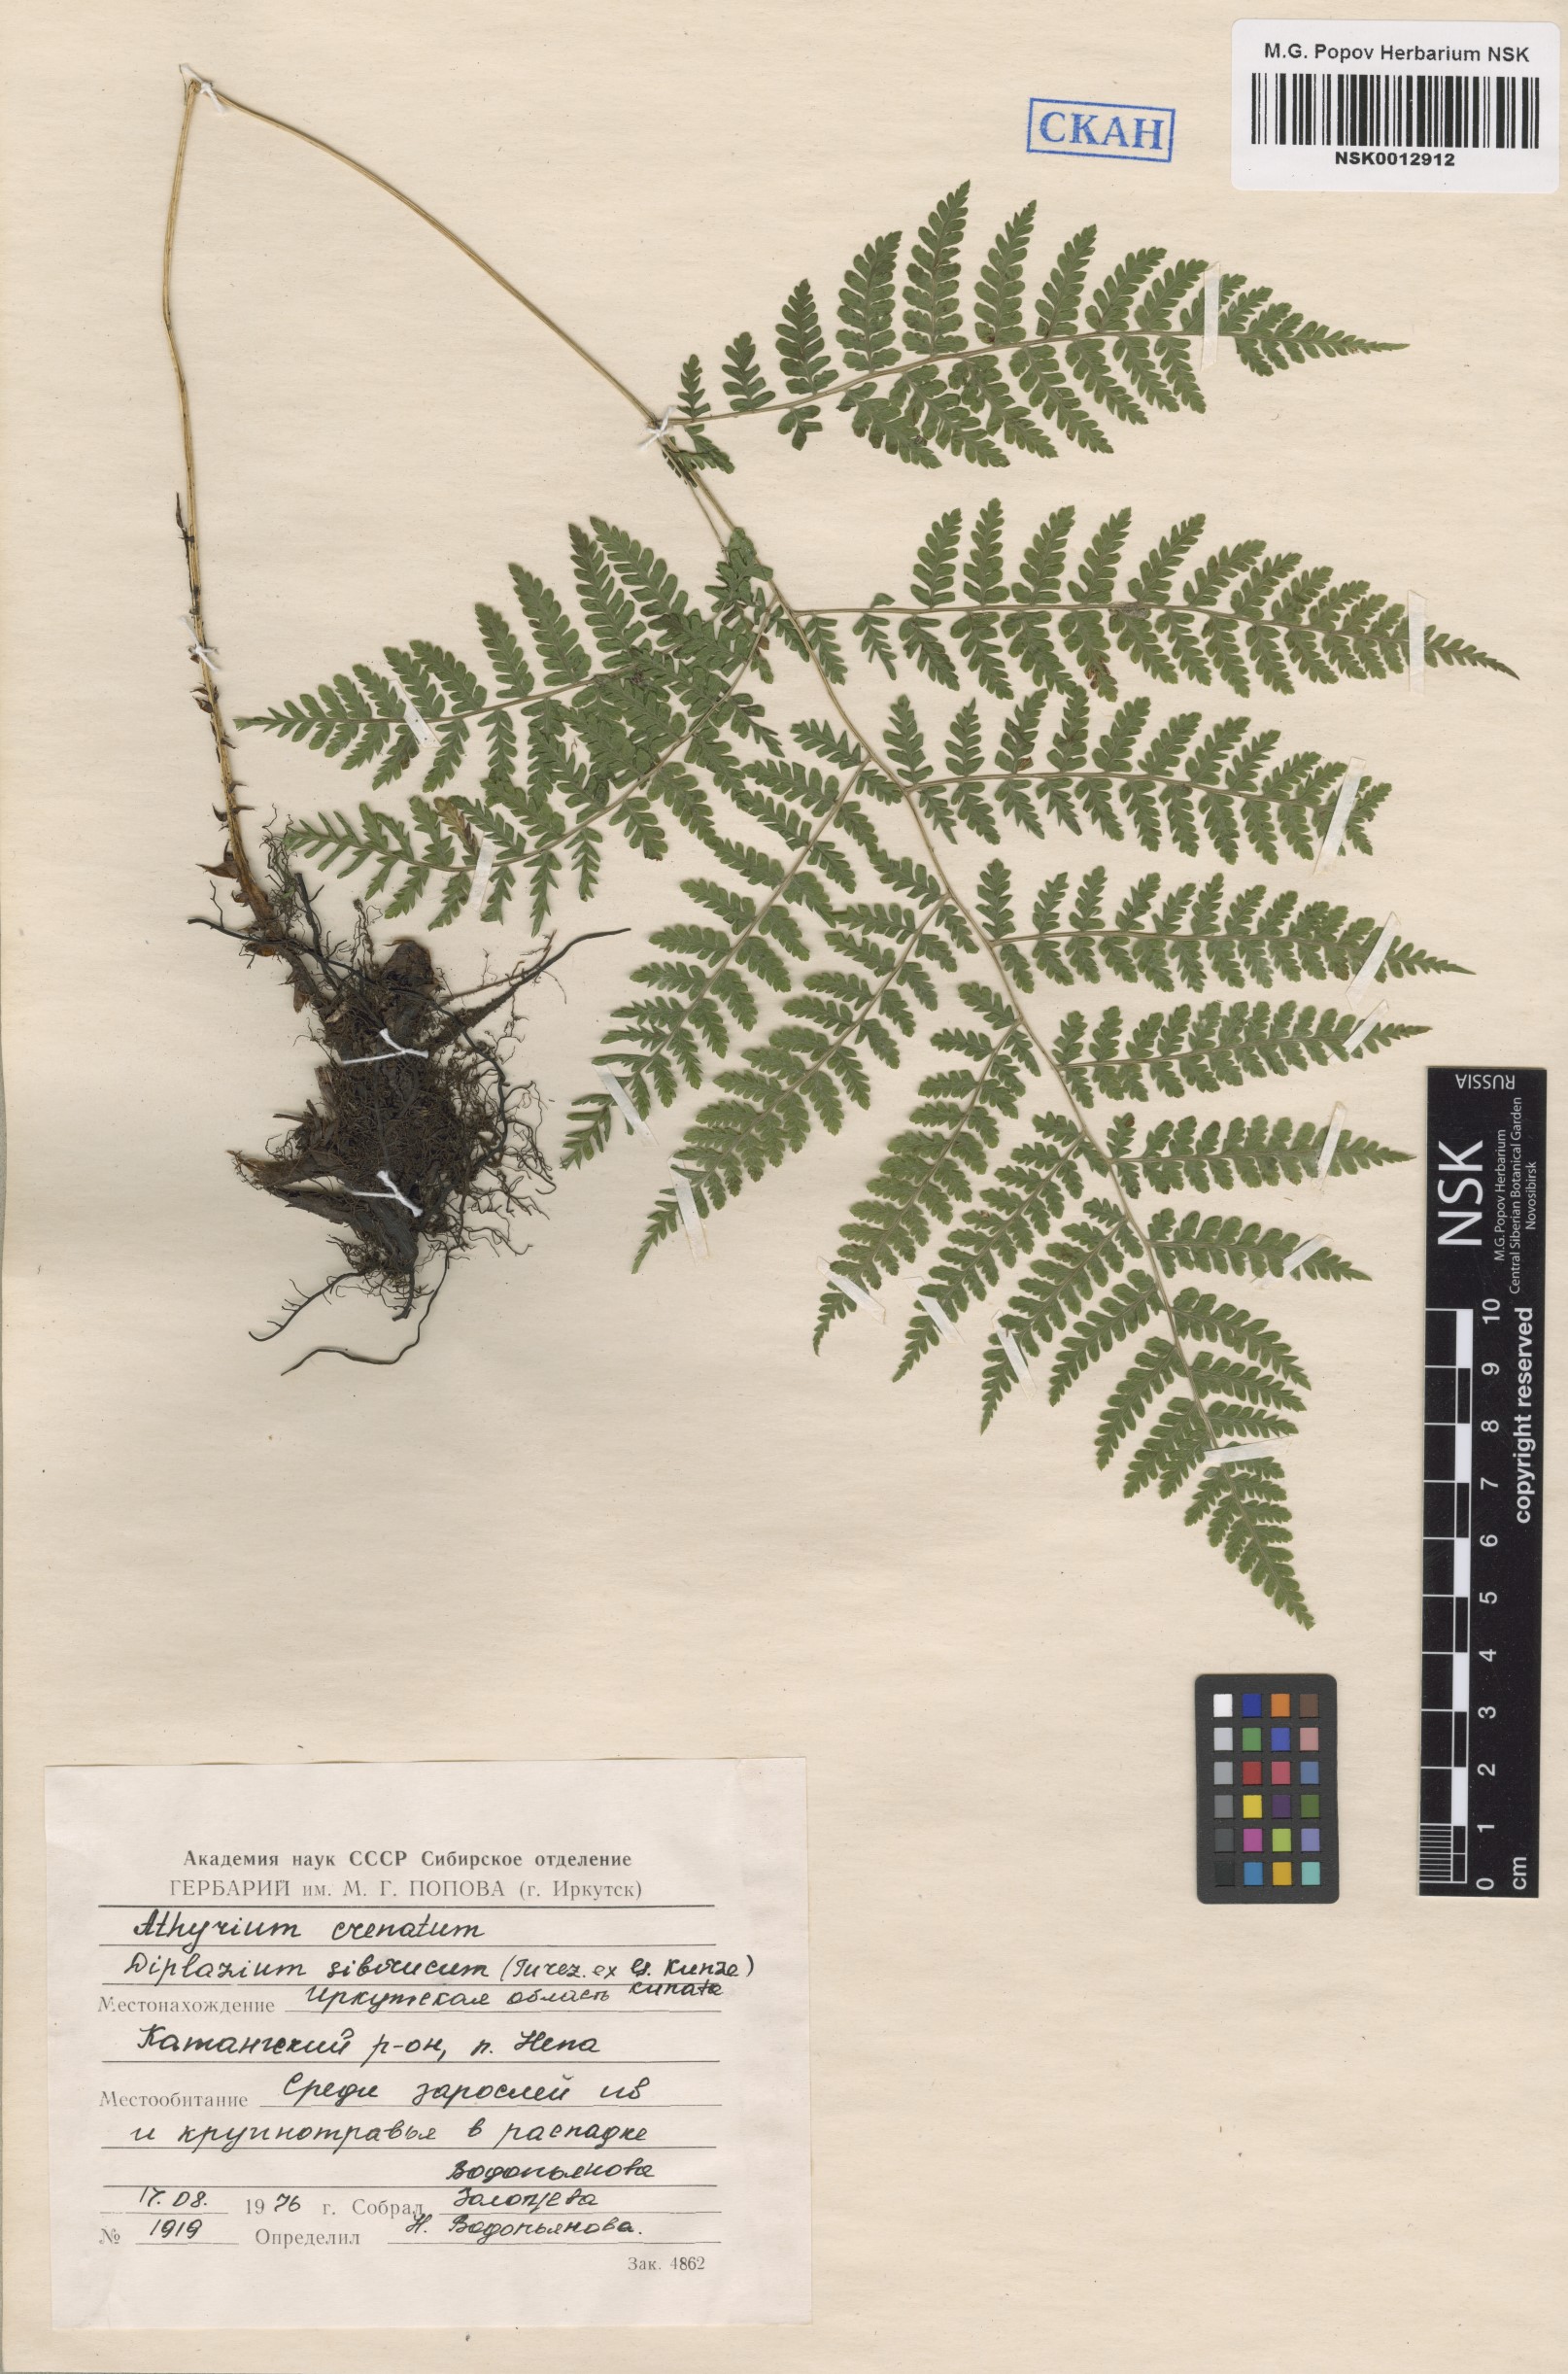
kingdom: Plantae
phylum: Tracheophyta
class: Polypodiopsida
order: Polypodiales
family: Athyriaceae
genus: Diplazium
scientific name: Diplazium sibiricum
